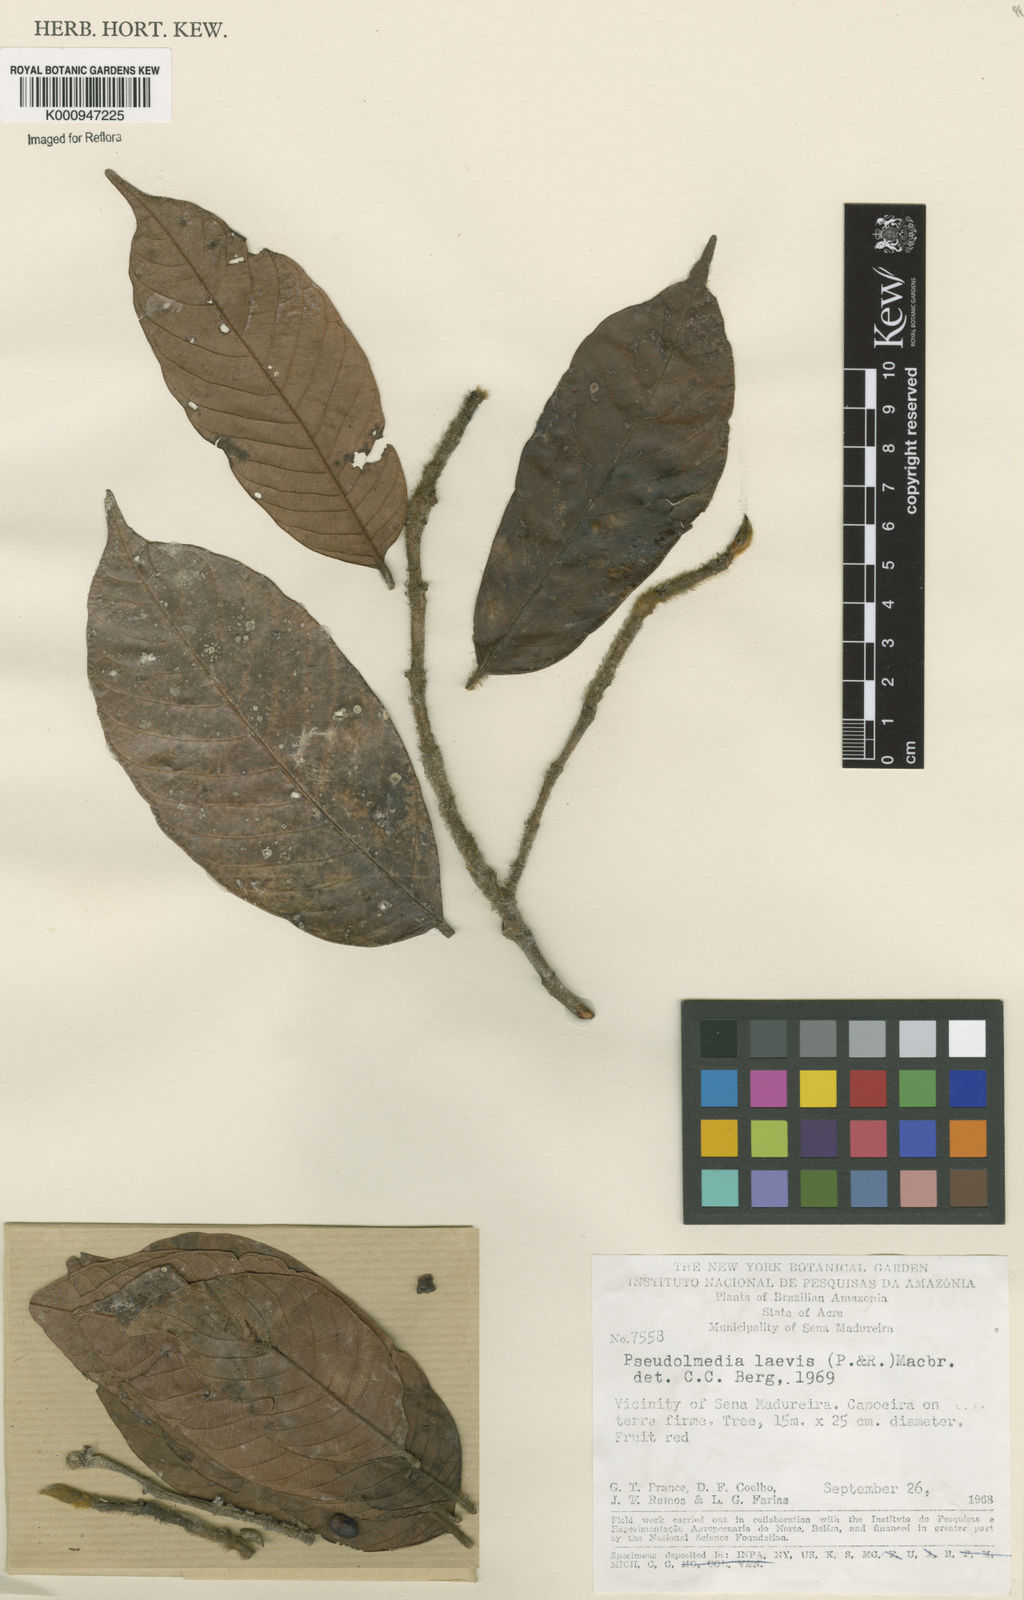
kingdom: Plantae
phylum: Tracheophyta
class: Magnoliopsida
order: Rosales
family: Moraceae
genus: Pseudolmedia
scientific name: Pseudolmedia laevis
